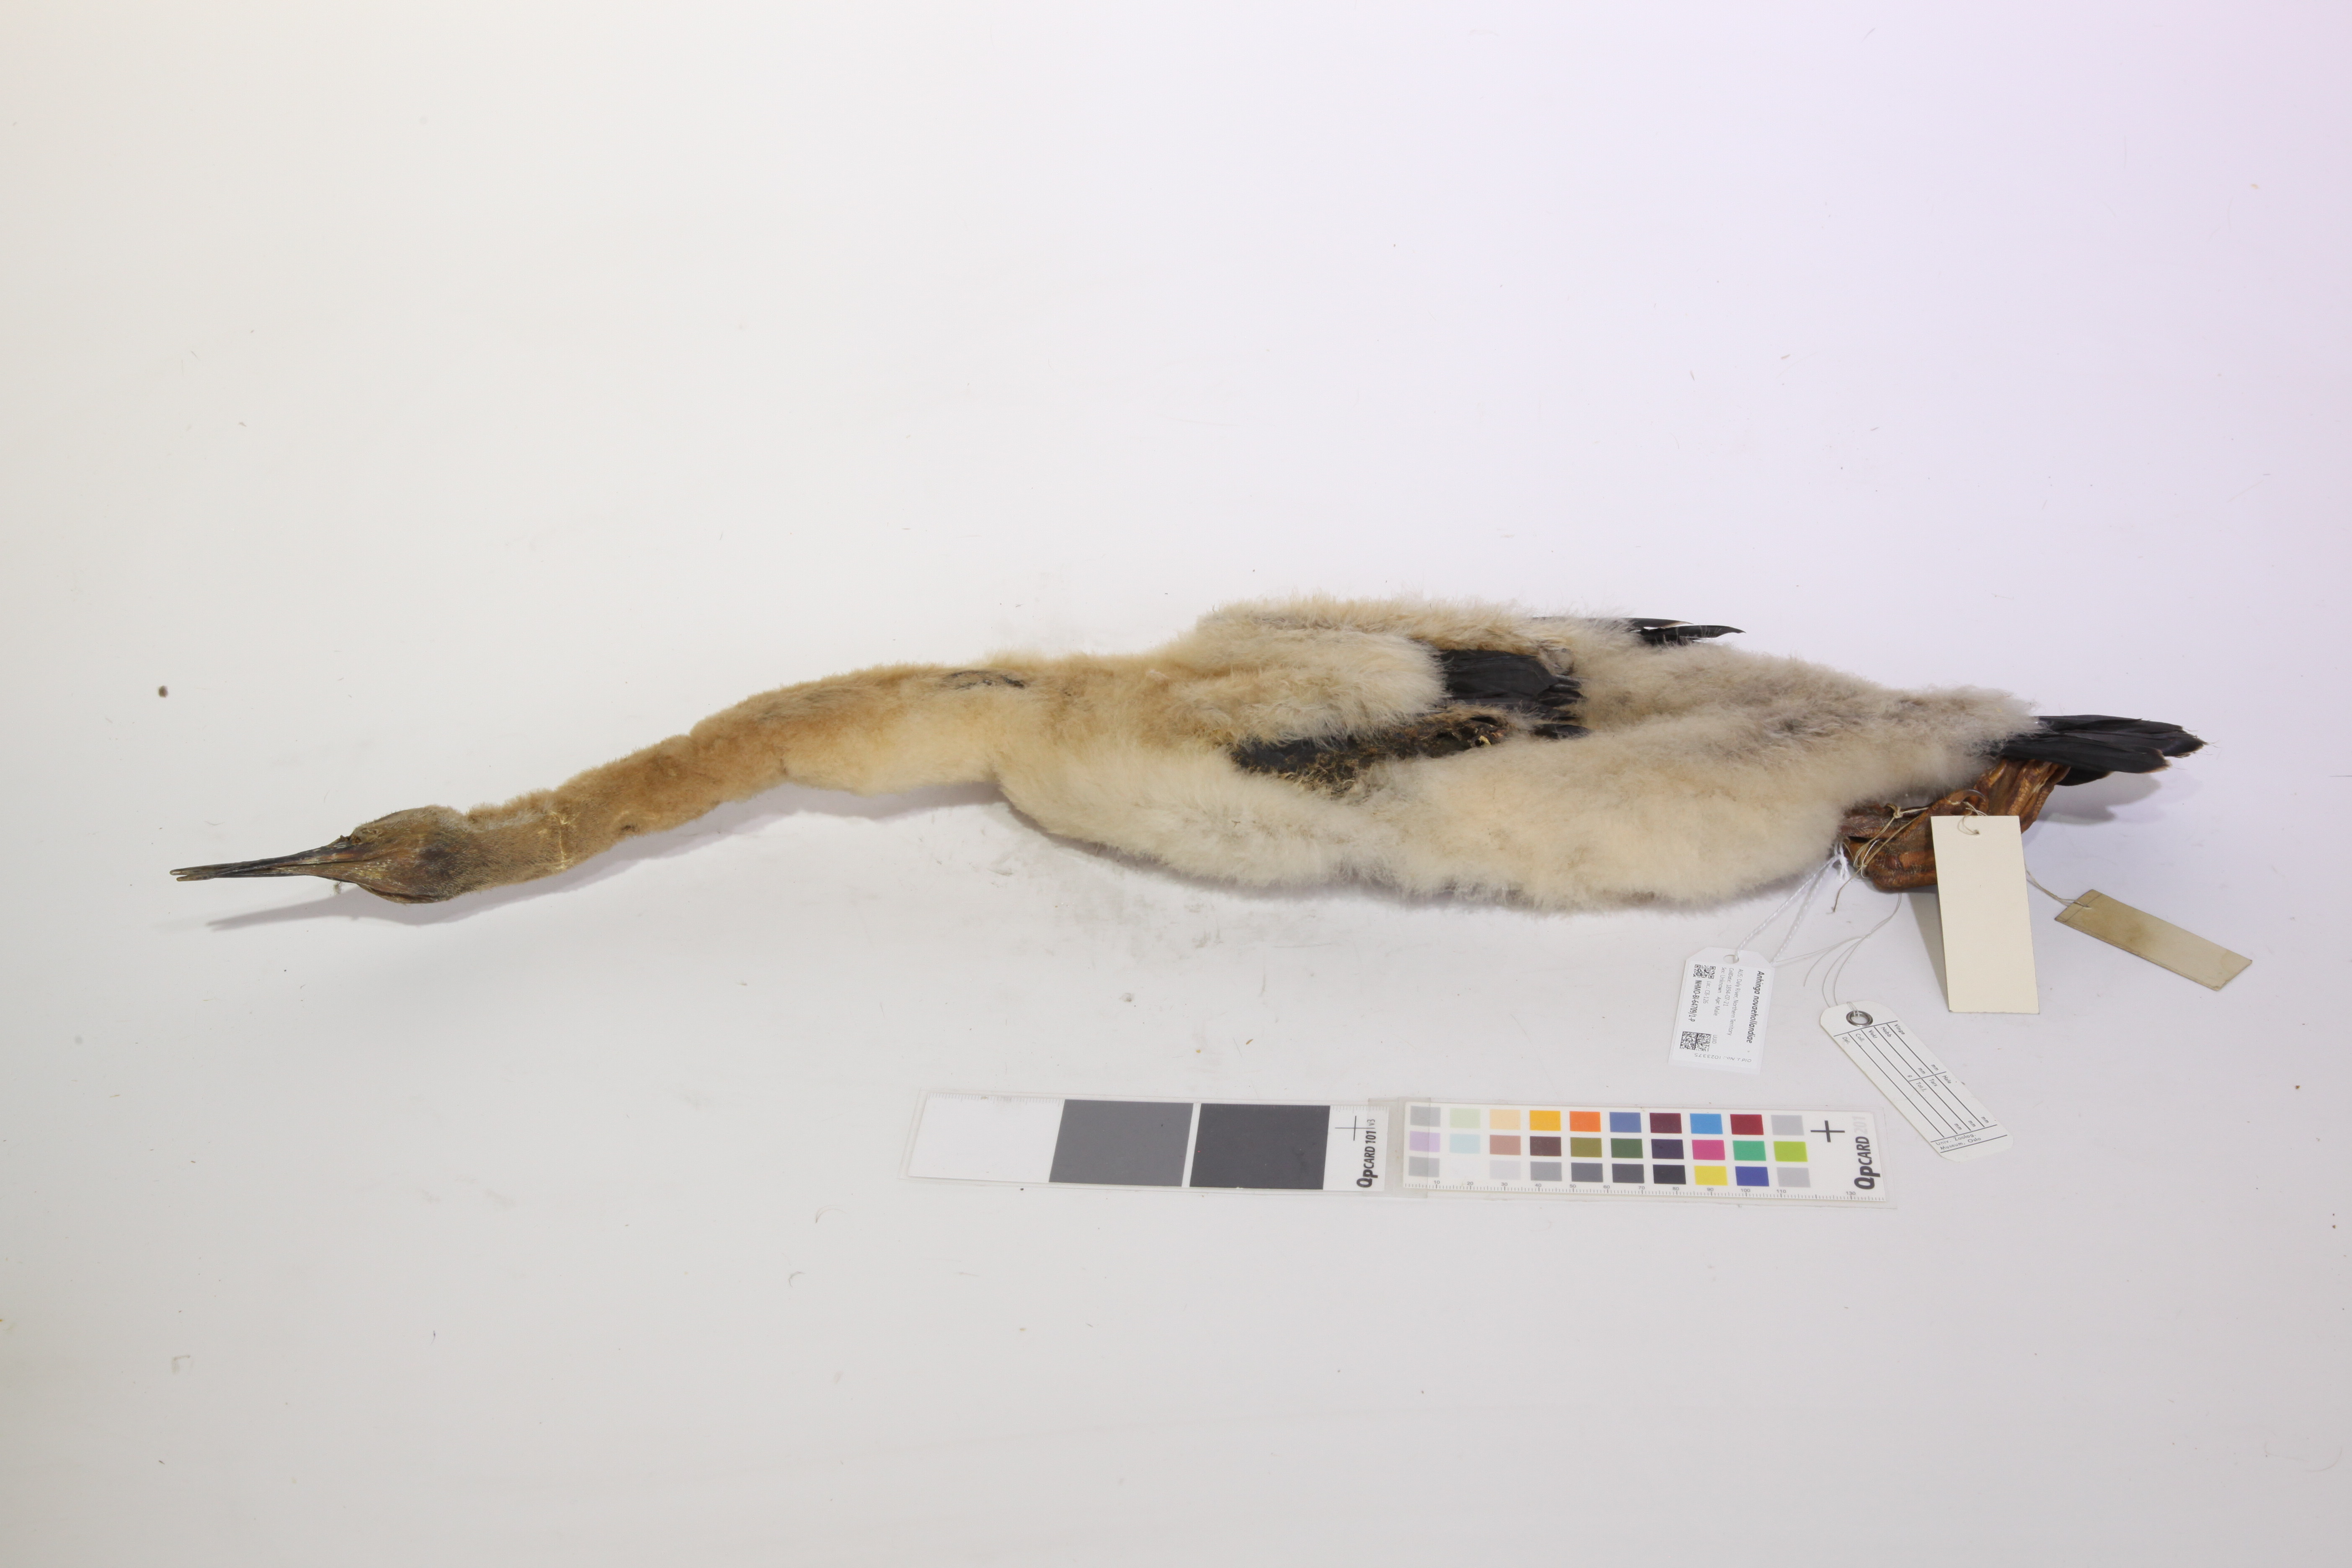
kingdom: Animalia
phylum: Chordata
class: Aves
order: Suliformes
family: Anhingidae
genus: Anhinga
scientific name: Anhinga novaehollandiae
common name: Australasian darter
